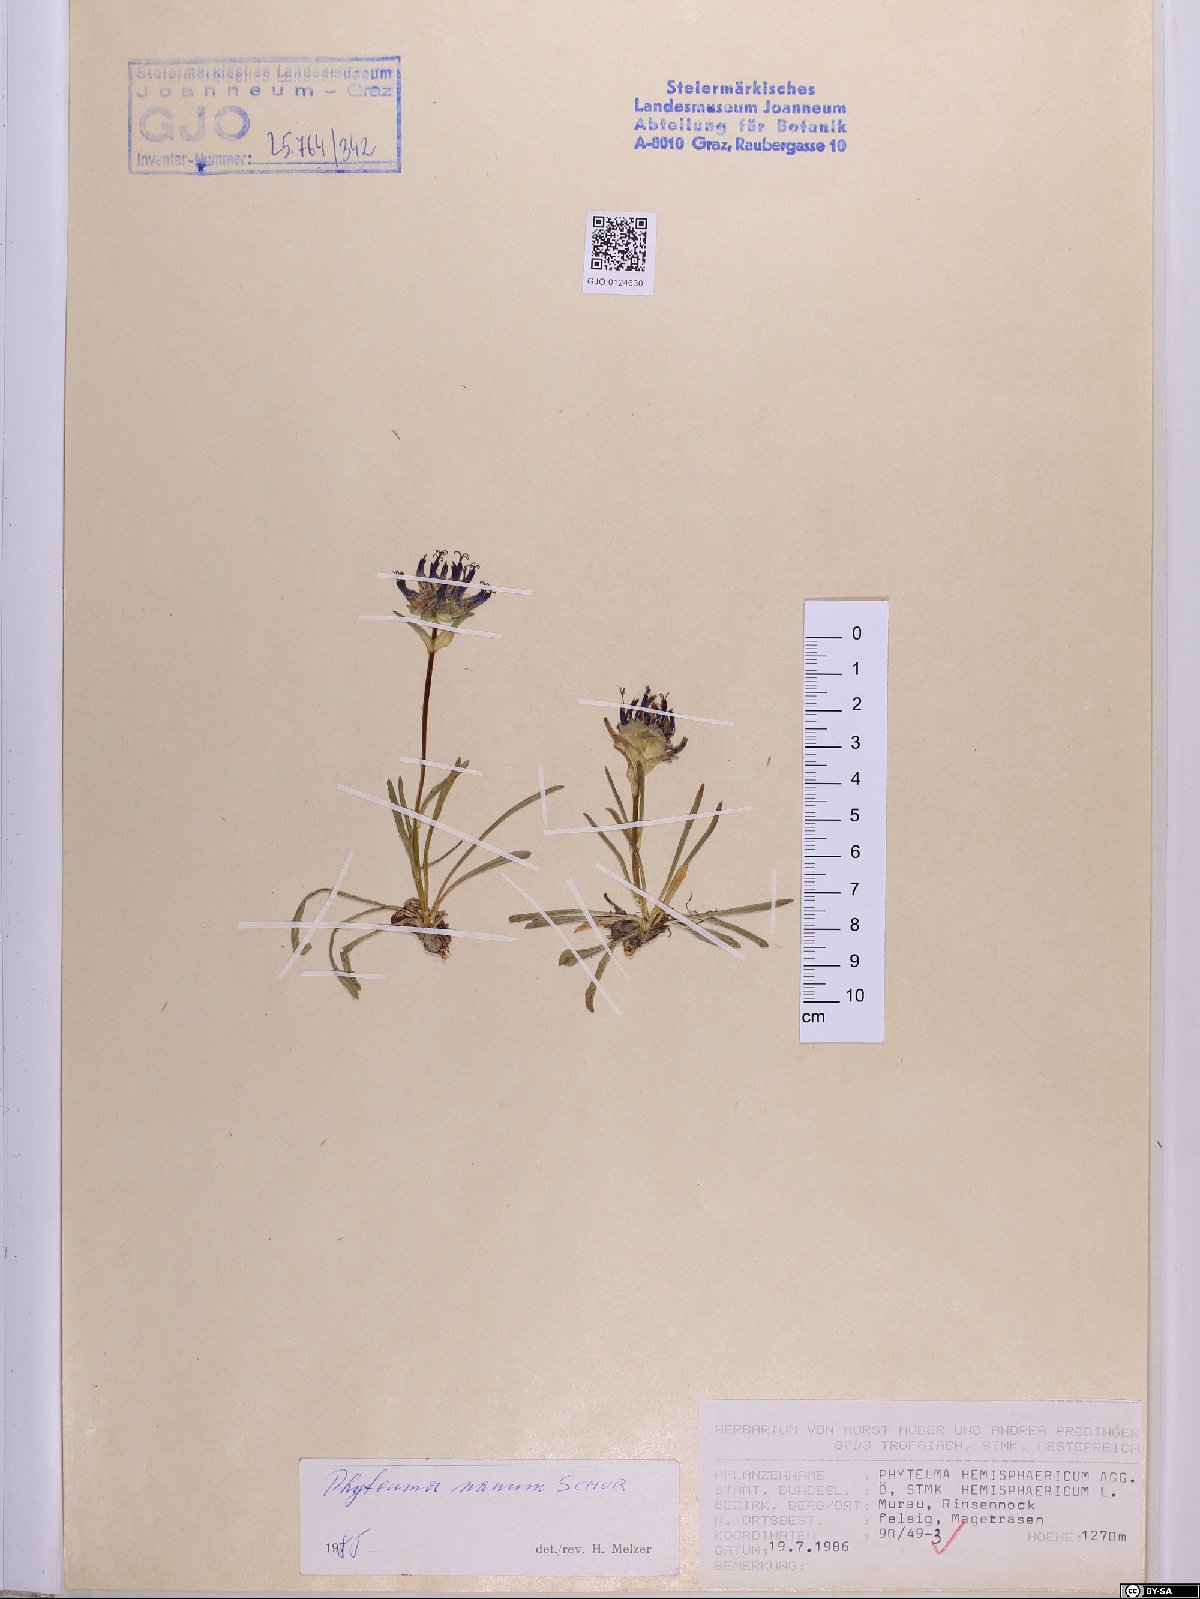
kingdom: Plantae
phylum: Tracheophyta
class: Magnoliopsida
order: Asterales
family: Campanulaceae
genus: Phyteuma
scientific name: Phyteuma globulariifolium
